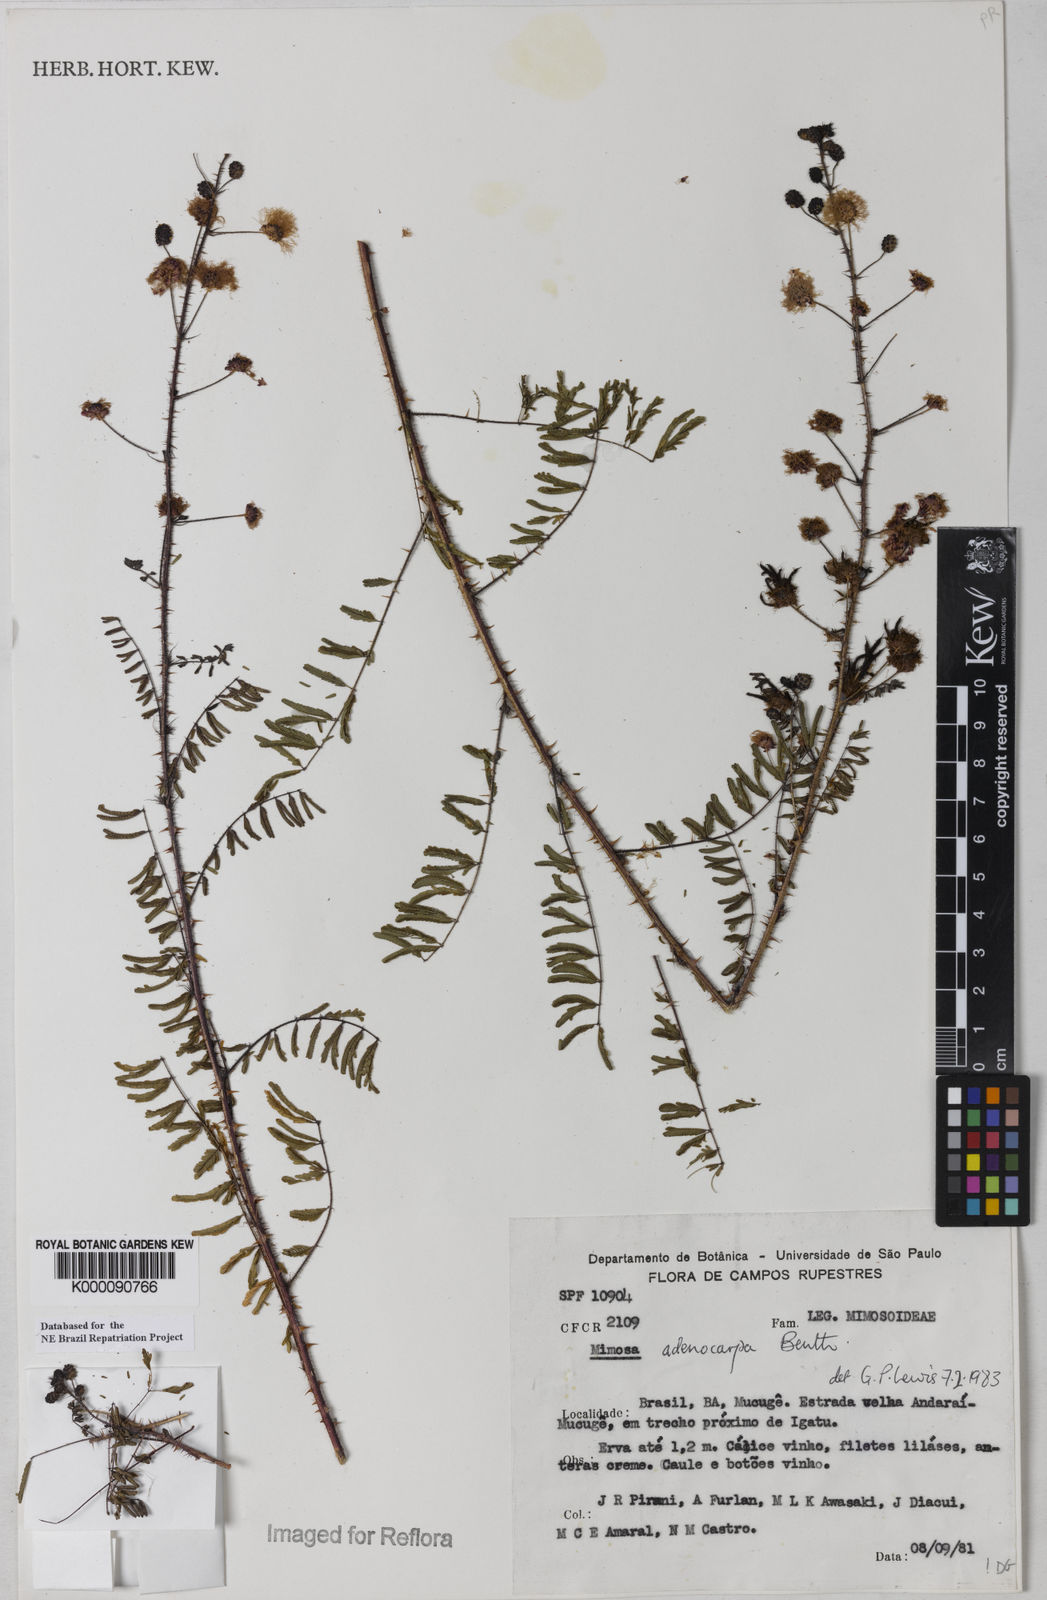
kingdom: Plantae
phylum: Tracheophyta
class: Magnoliopsida
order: Fabales
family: Fabaceae
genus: Mimosa
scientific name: Mimosa adenocarpa
